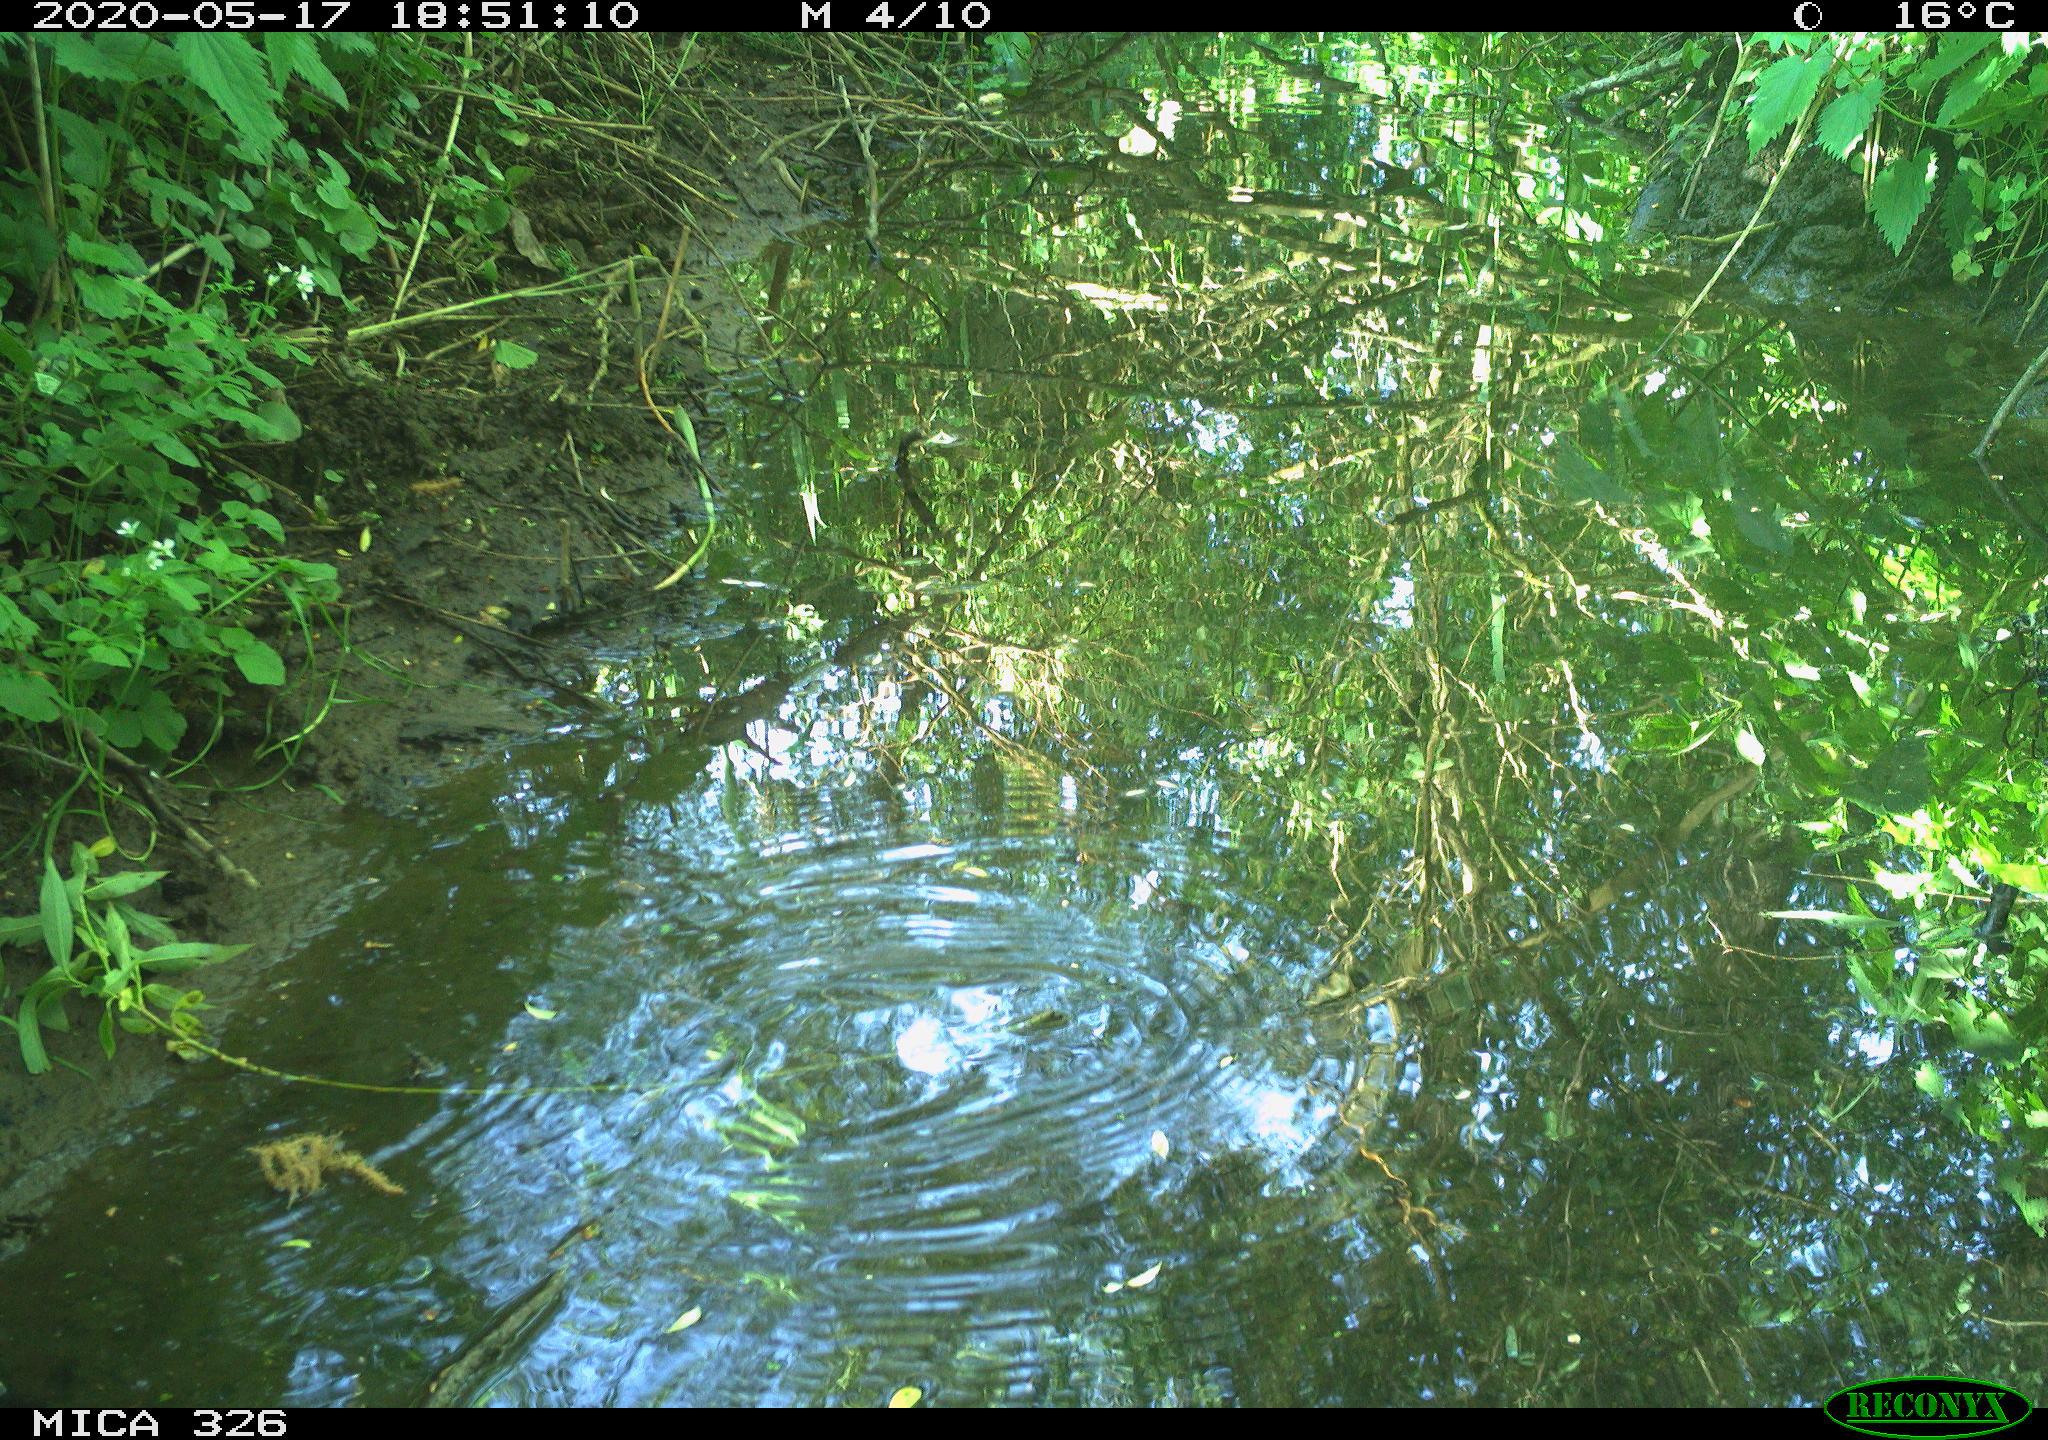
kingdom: Animalia
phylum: Chordata
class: Aves
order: Passeriformes
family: Turdidae
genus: Turdus
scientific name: Turdus merula
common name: Common blackbird
